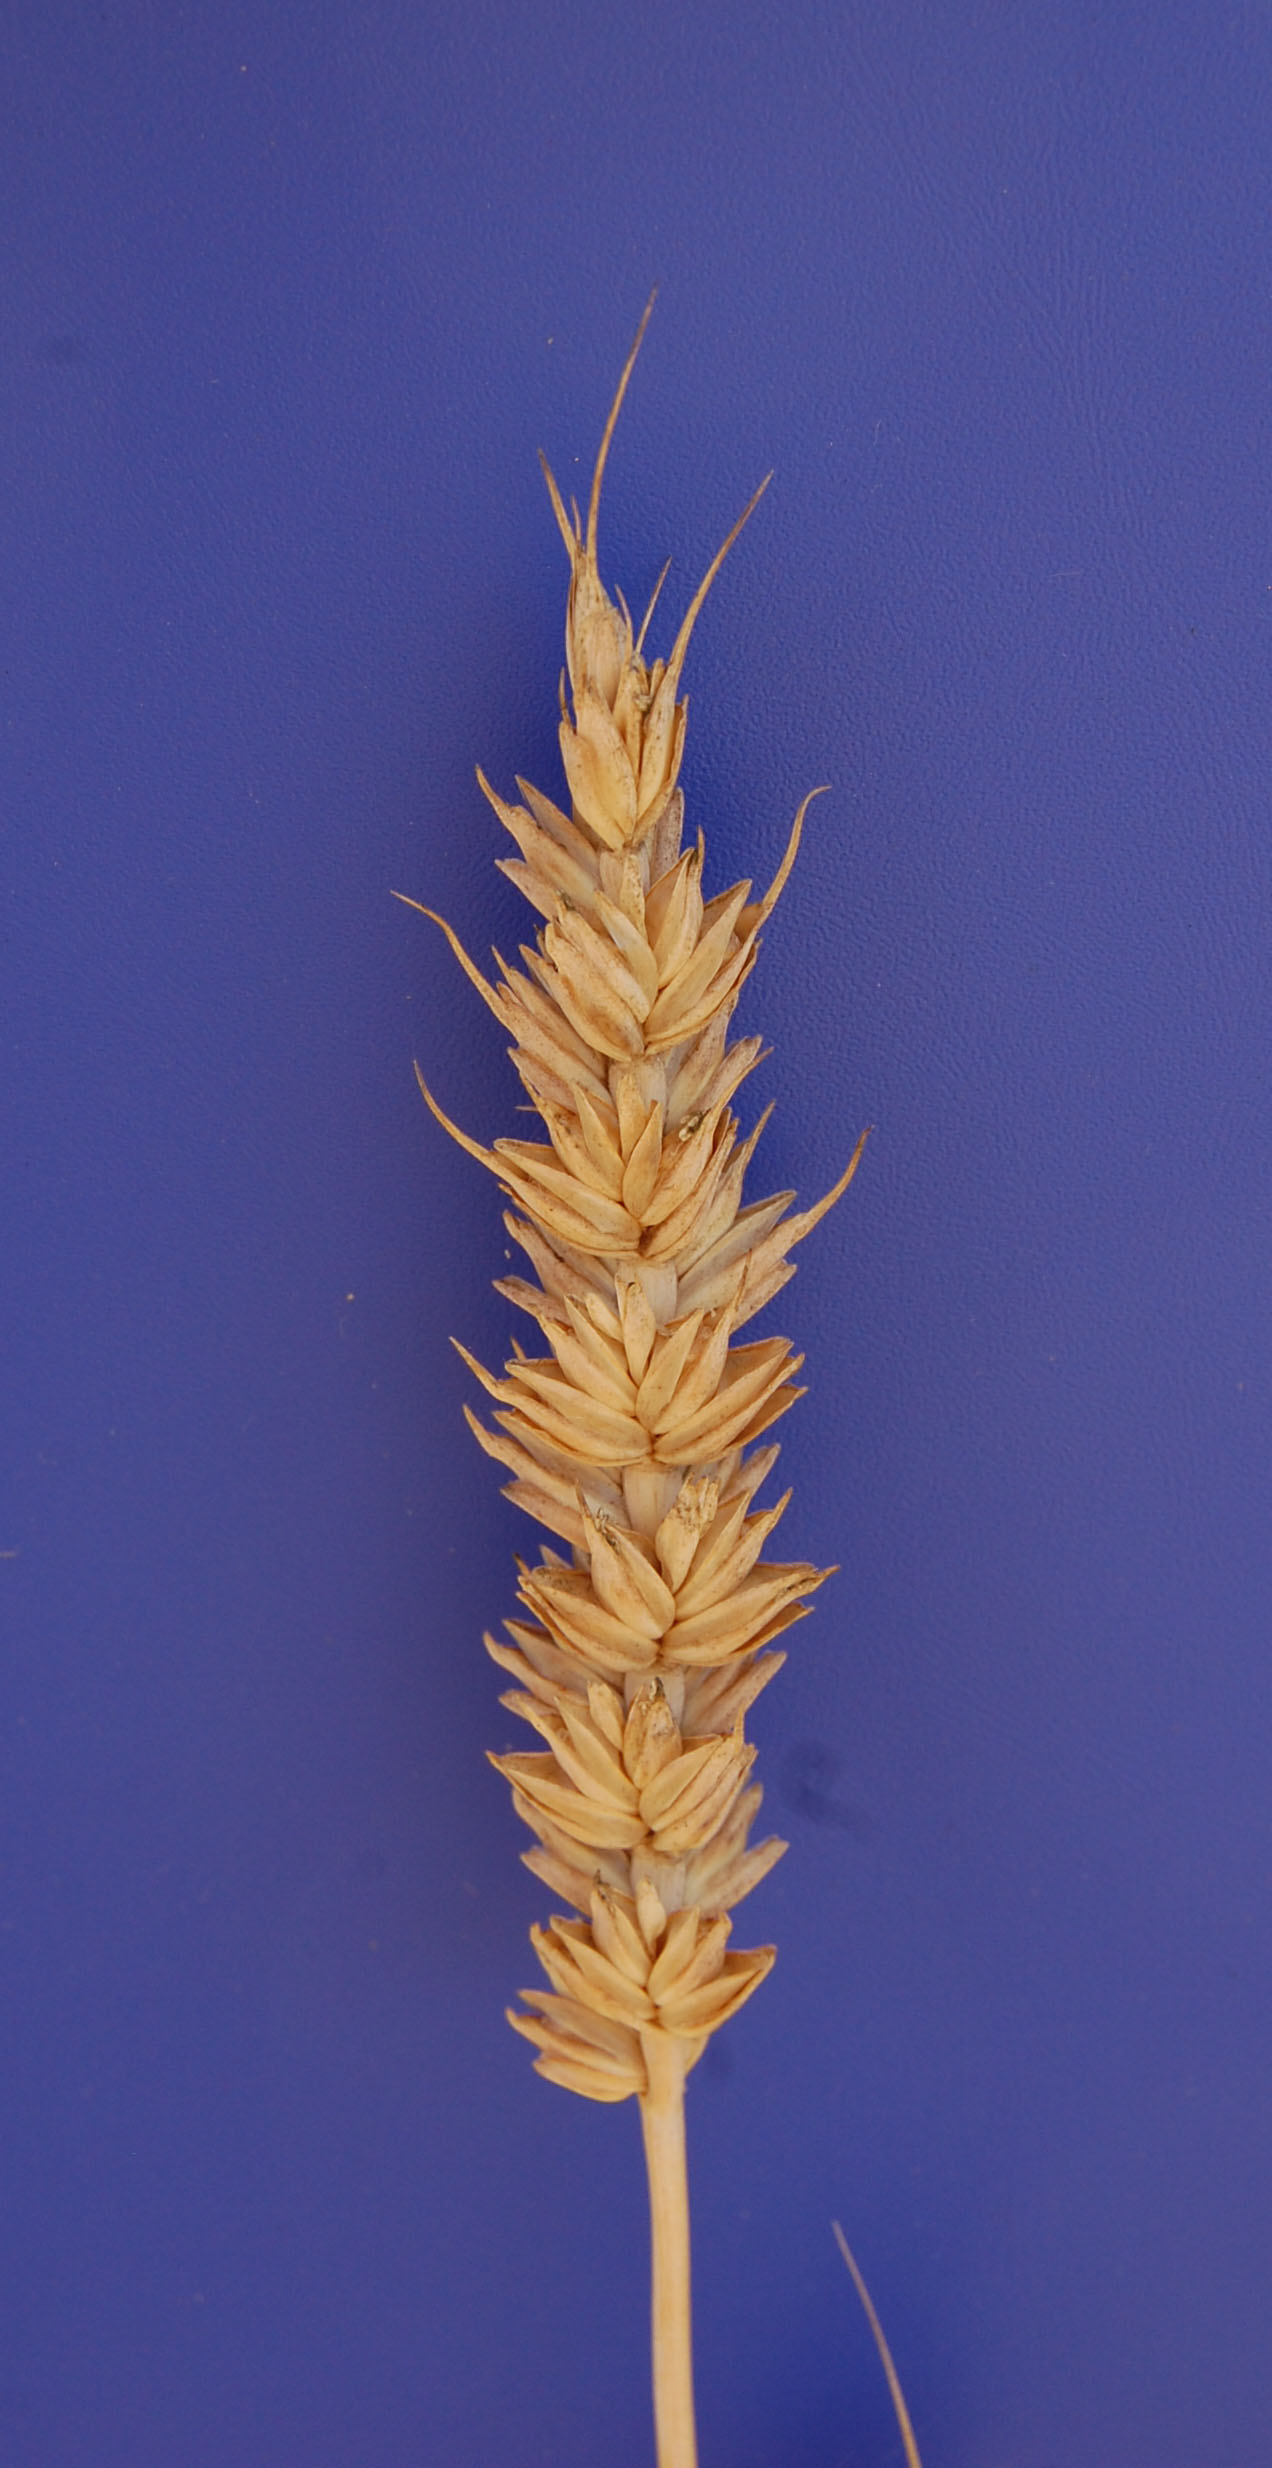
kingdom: Plantae
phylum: Tracheophyta
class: Liliopsida
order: Poales
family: Poaceae
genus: Triticum
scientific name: Triticum aestivum
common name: Common wheat
